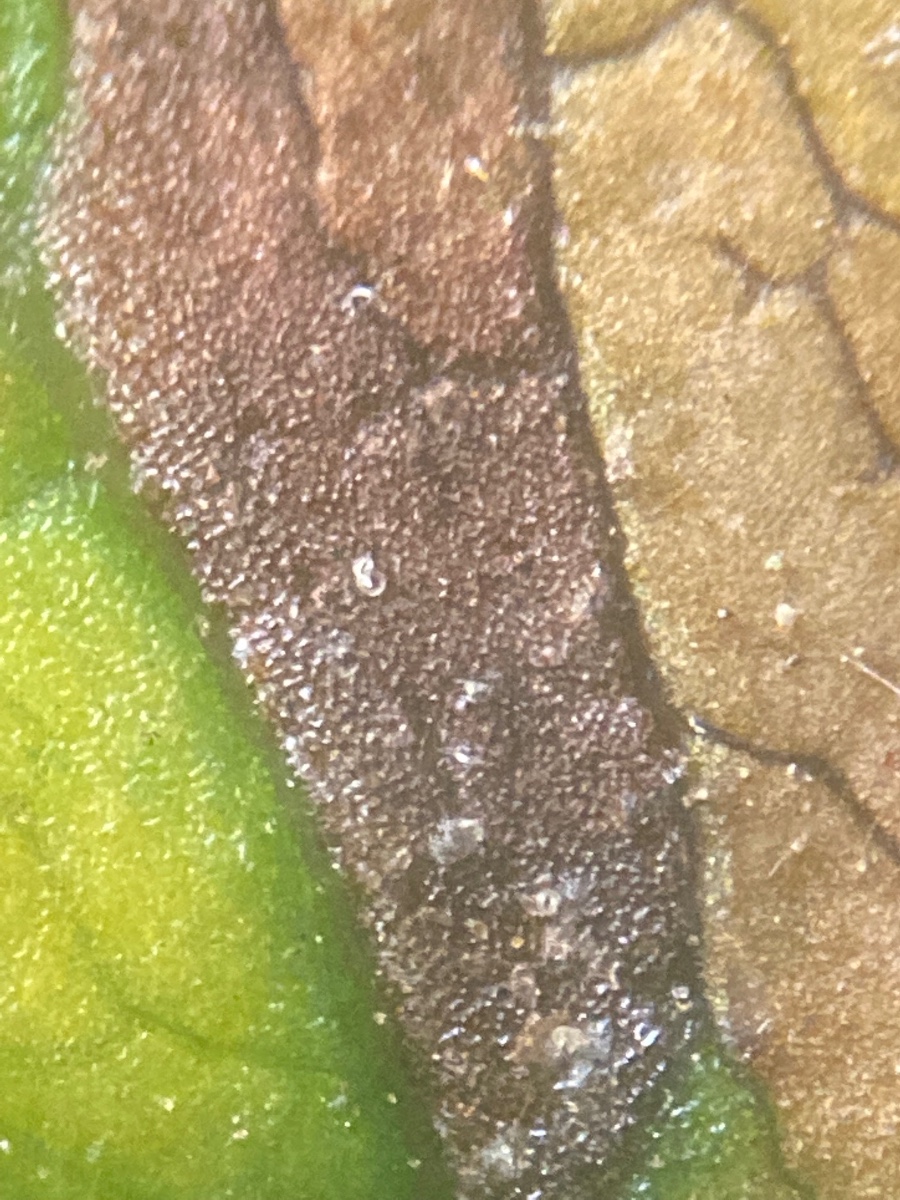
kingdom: Fungi
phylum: Ascomycota
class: Dothideomycetes
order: Mycosphaerellales
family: Mycosphaerellaceae
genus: Septoria
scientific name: Septoria lysimachiae
